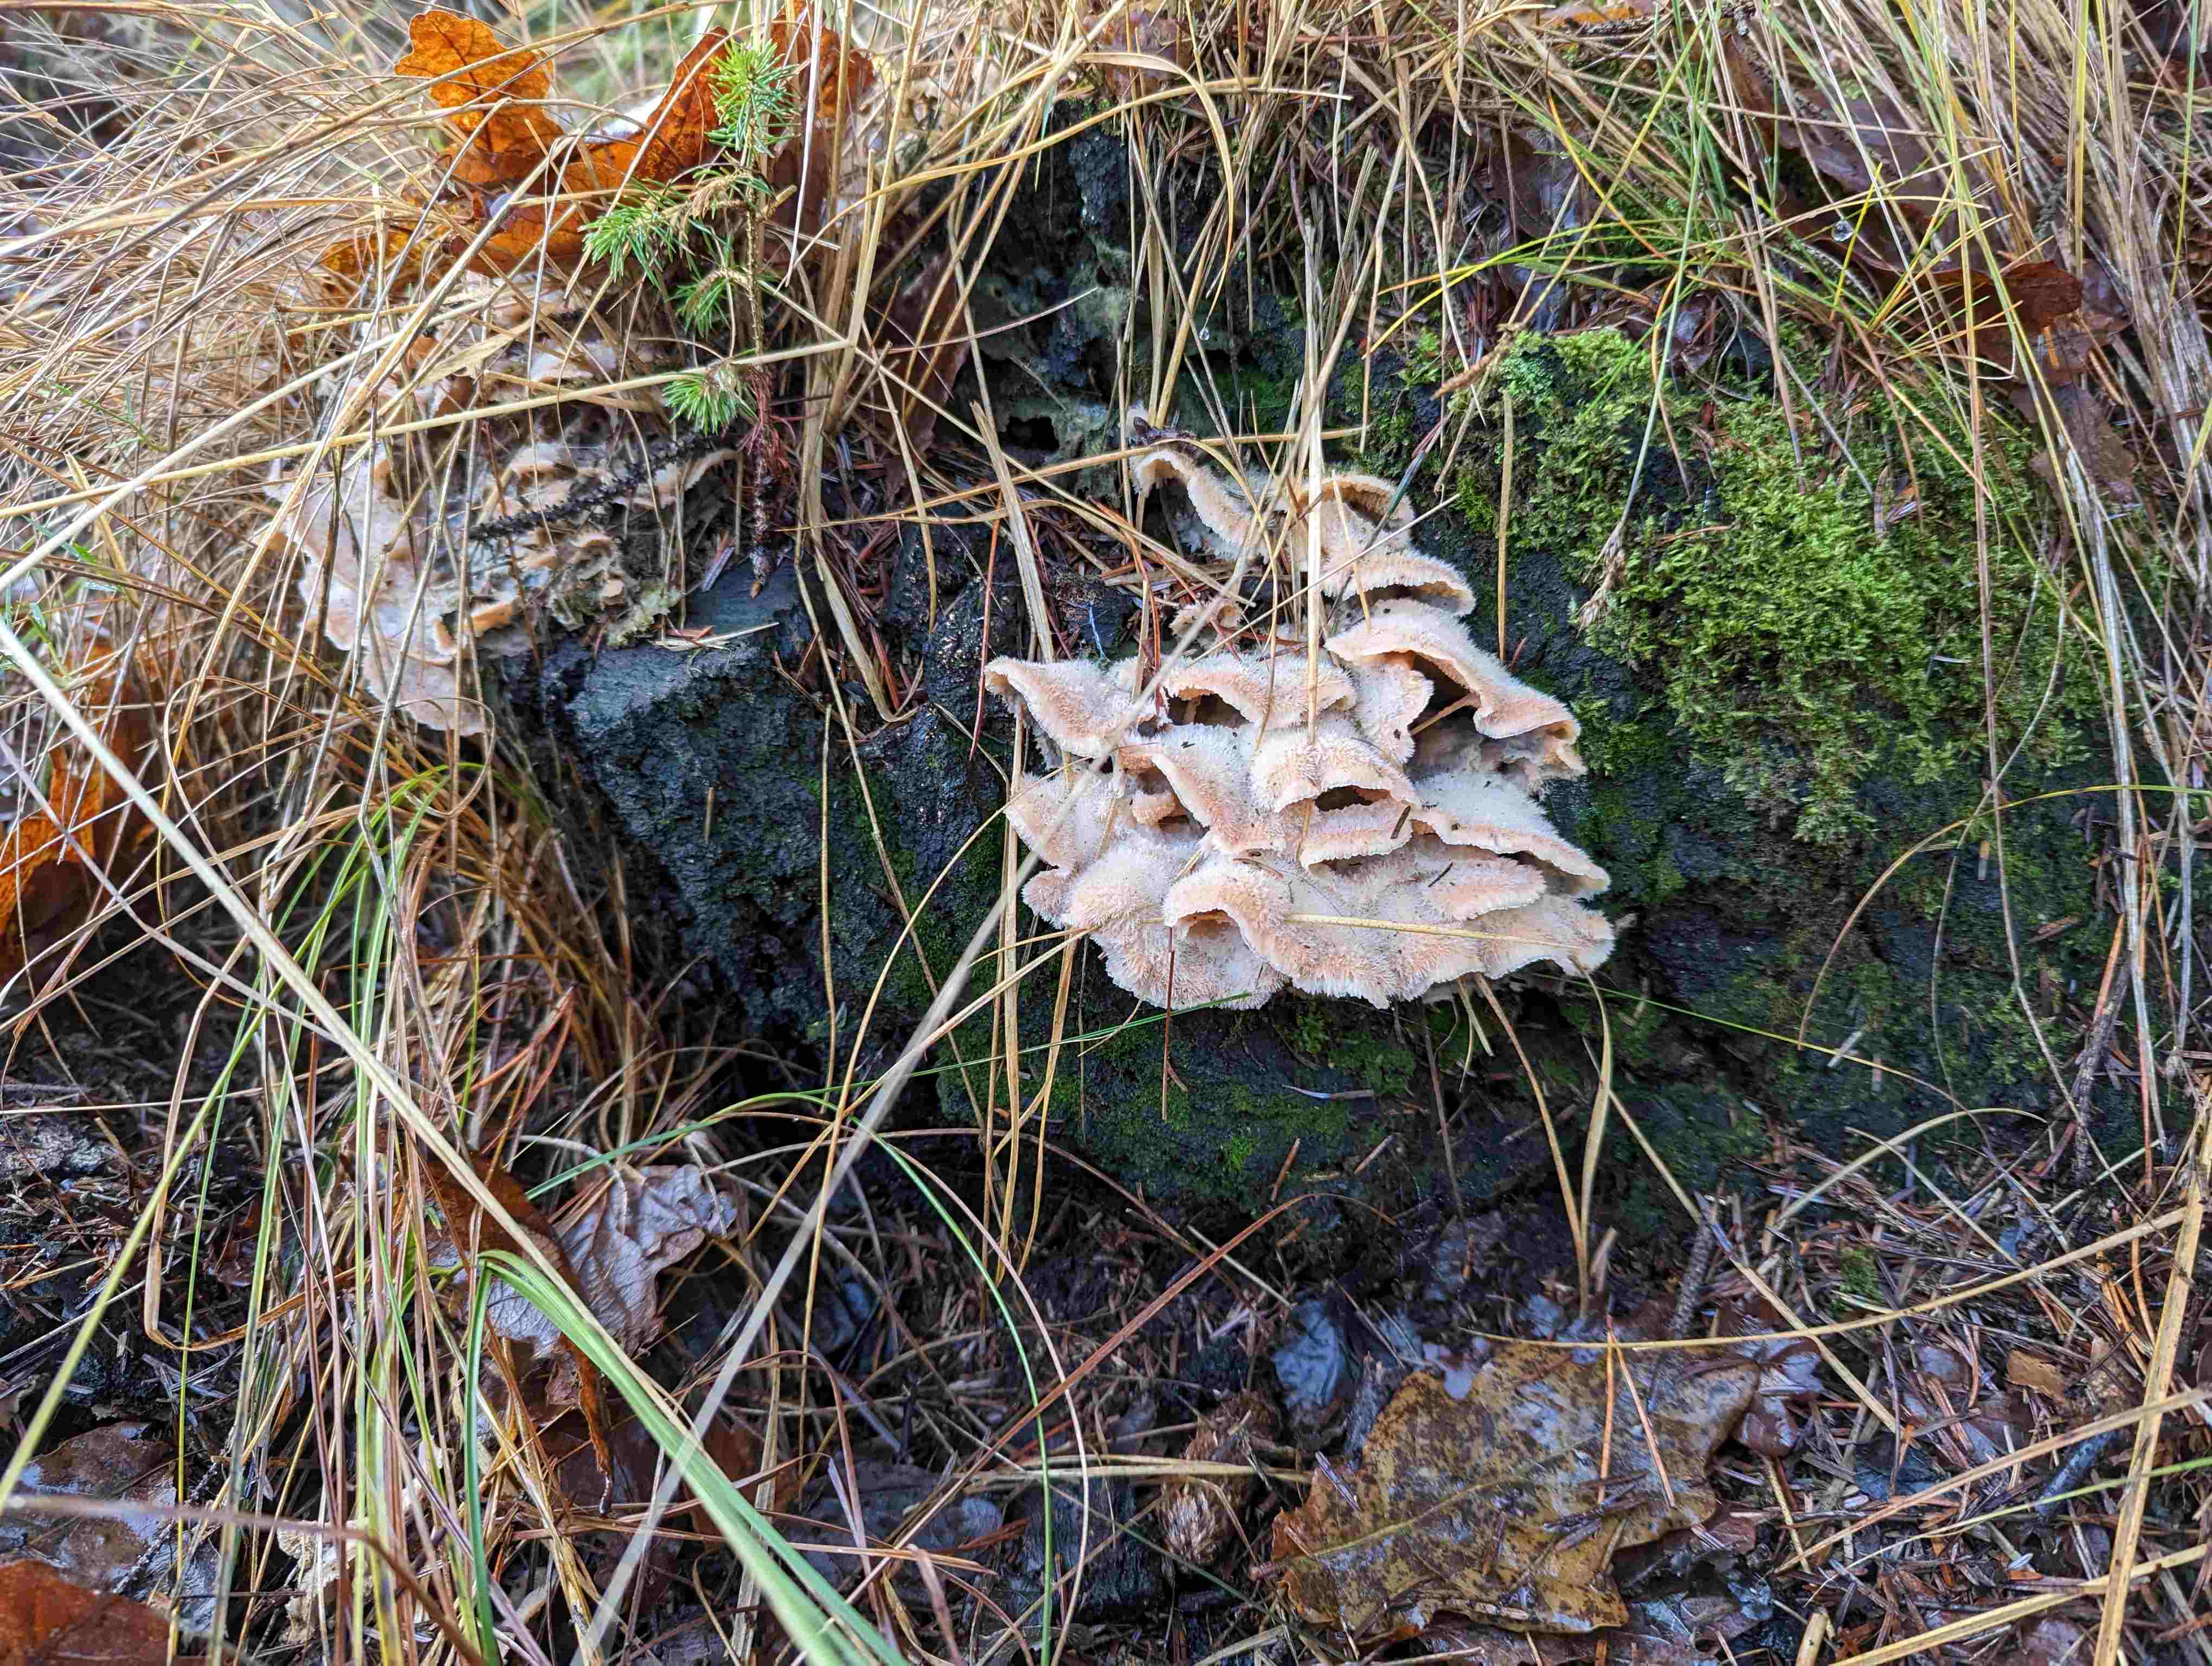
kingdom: Fungi
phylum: Basidiomycota
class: Agaricomycetes
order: Polyporales
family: Meruliaceae
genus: Phlebia
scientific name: Phlebia tremellosa
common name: bævrende åresvamp
